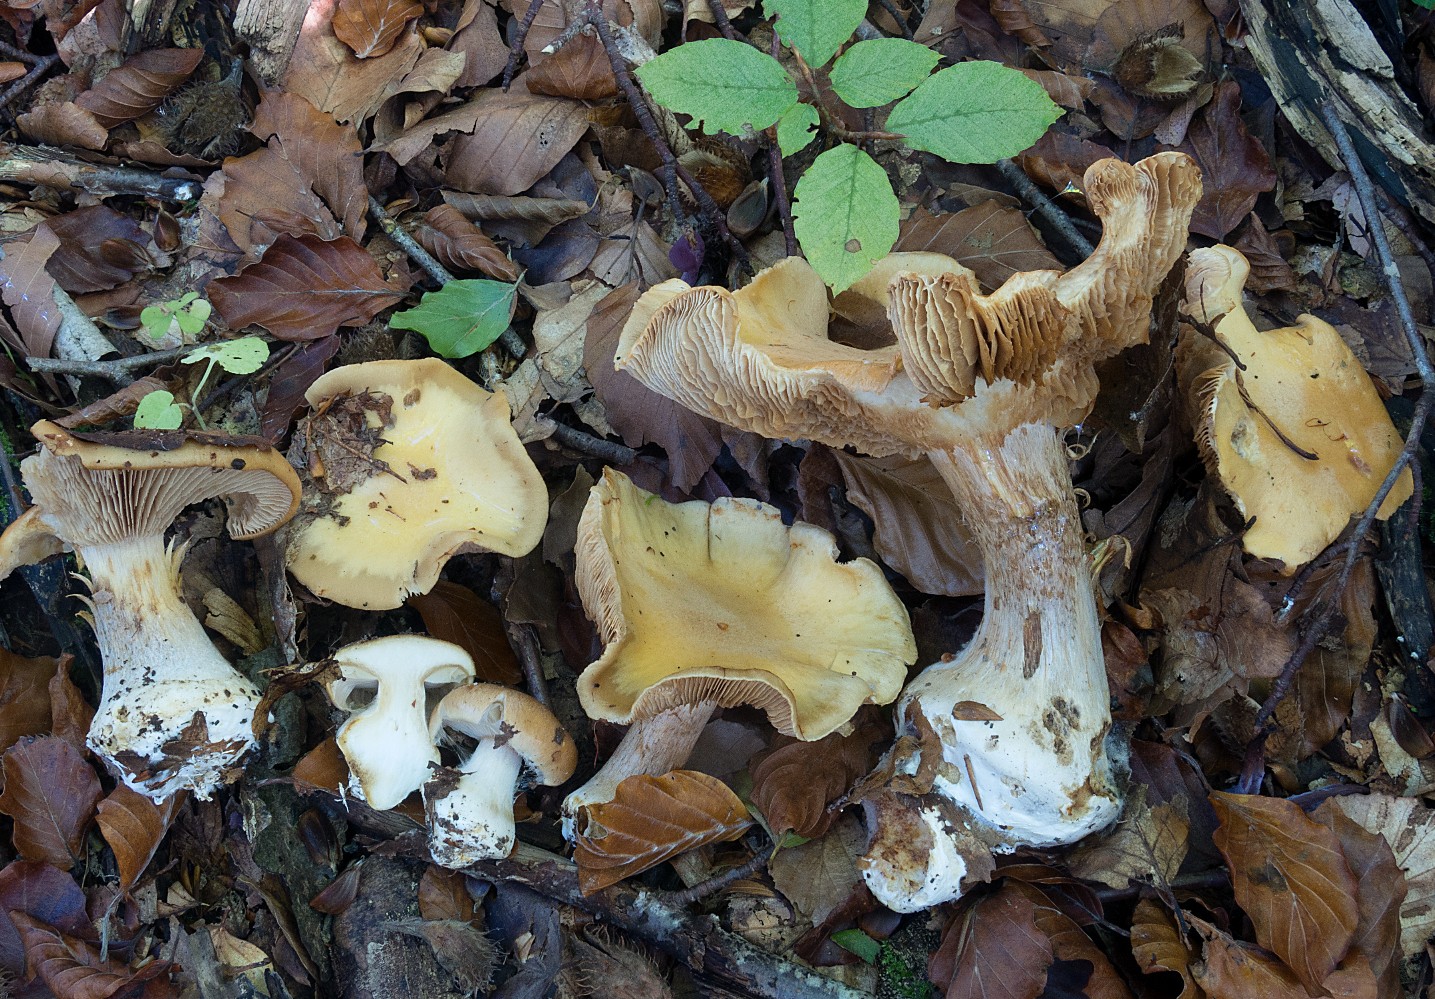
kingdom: Fungi
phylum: Basidiomycota
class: Agaricomycetes
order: Agaricales
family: Cortinariaceae
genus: Thaxterogaster
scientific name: Thaxterogaster talus
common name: knogle-slørhat
